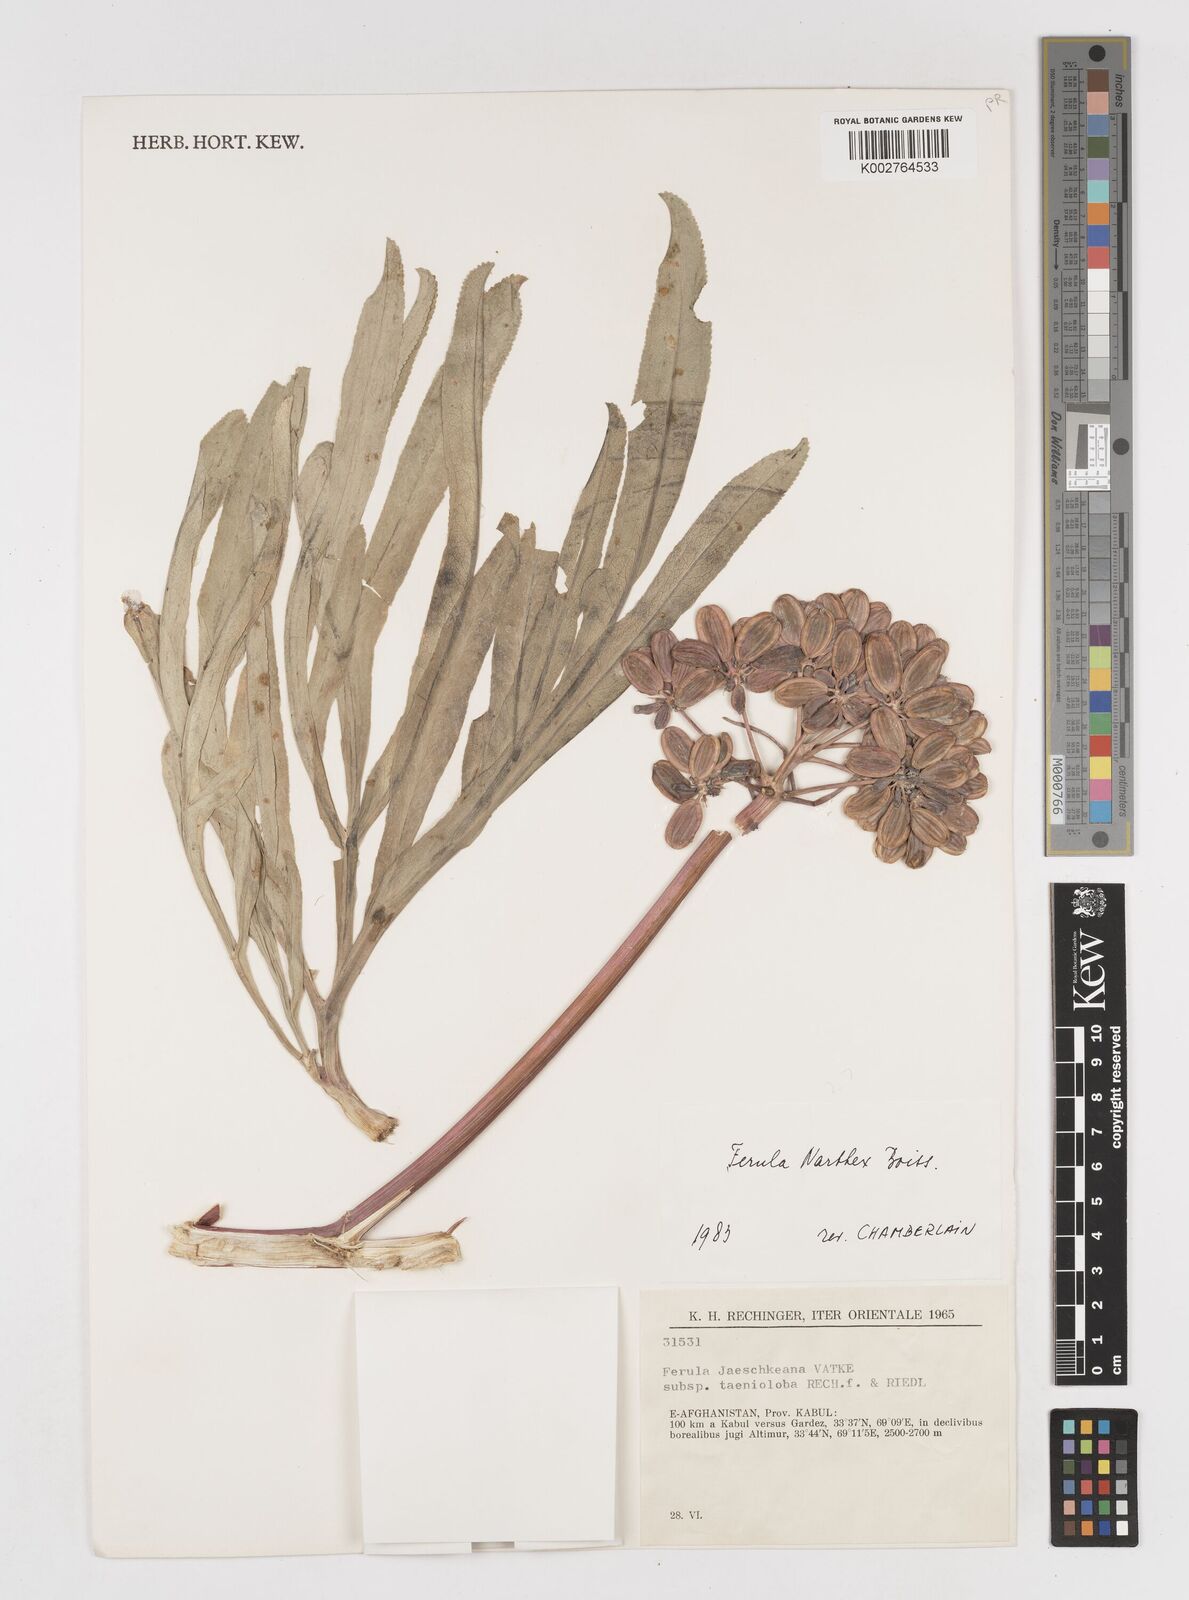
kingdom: Plantae
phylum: Tracheophyta
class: Magnoliopsida
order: Apiales
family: Apiaceae
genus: Ferula
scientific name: Ferula narthex
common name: Hing asafetida
